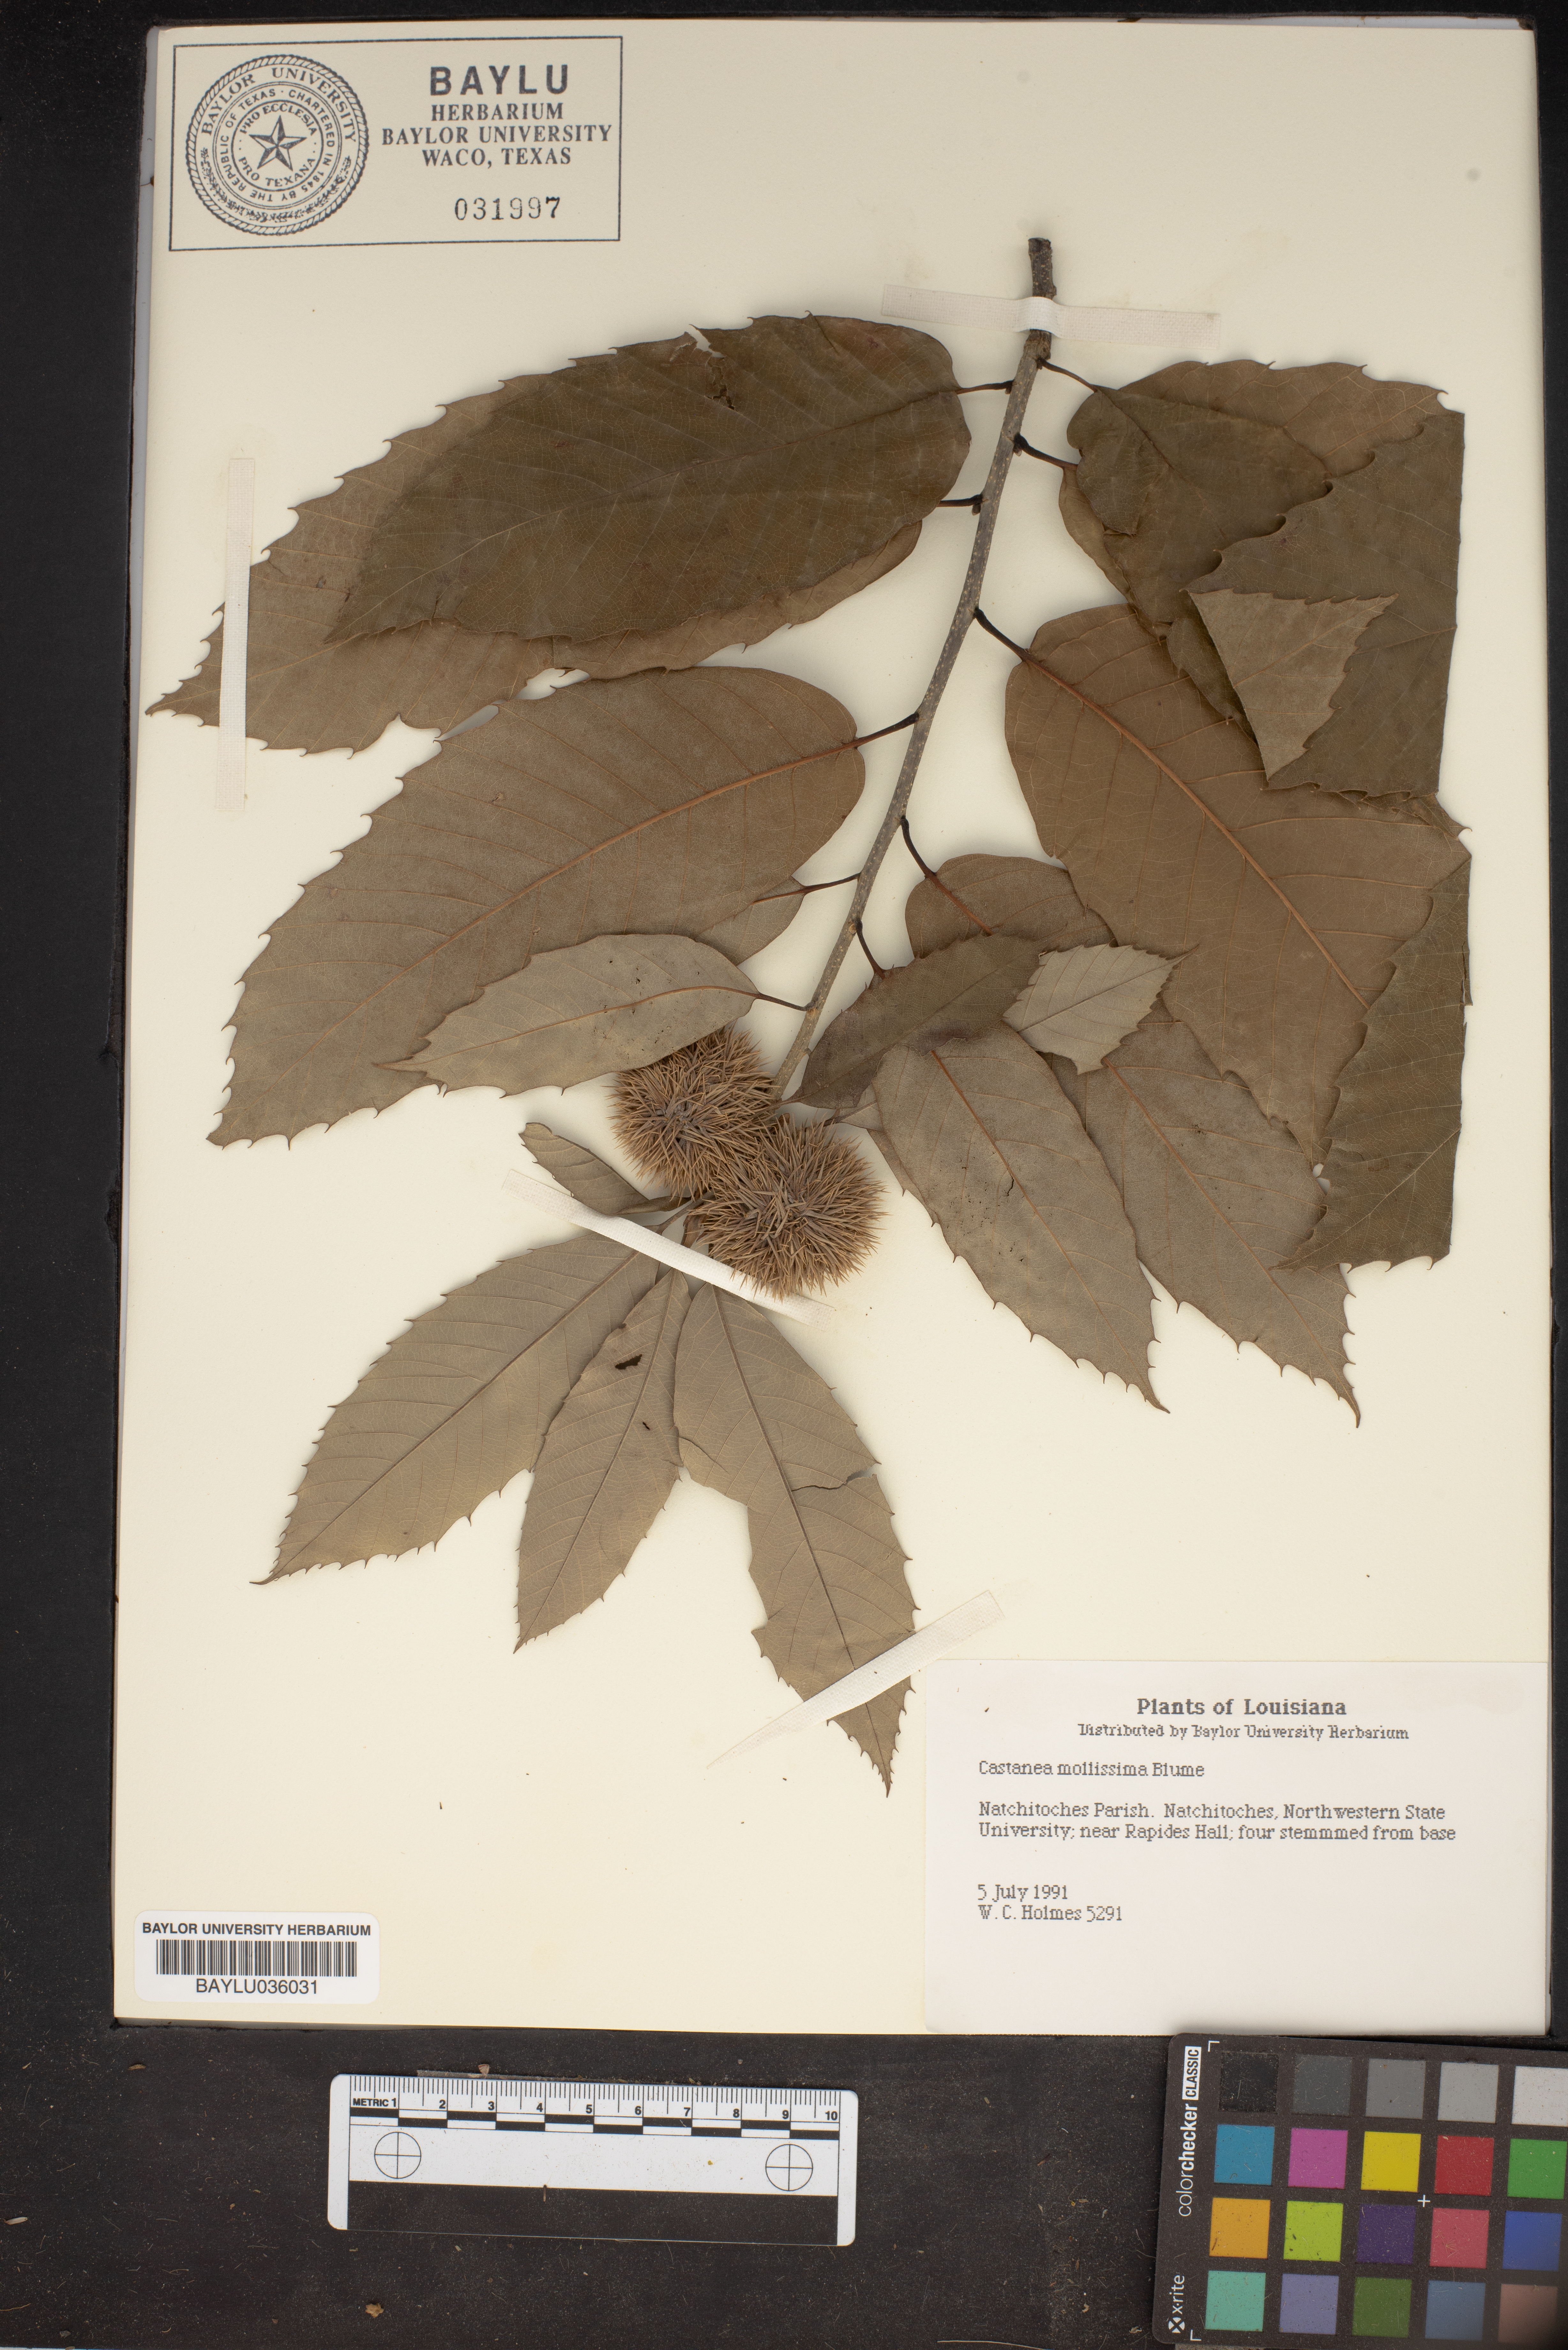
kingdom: Plantae
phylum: Tracheophyta
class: Magnoliopsida
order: Fagales
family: Fagaceae
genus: Castanea
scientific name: Castanea mollissima
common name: Chinese chestnut
